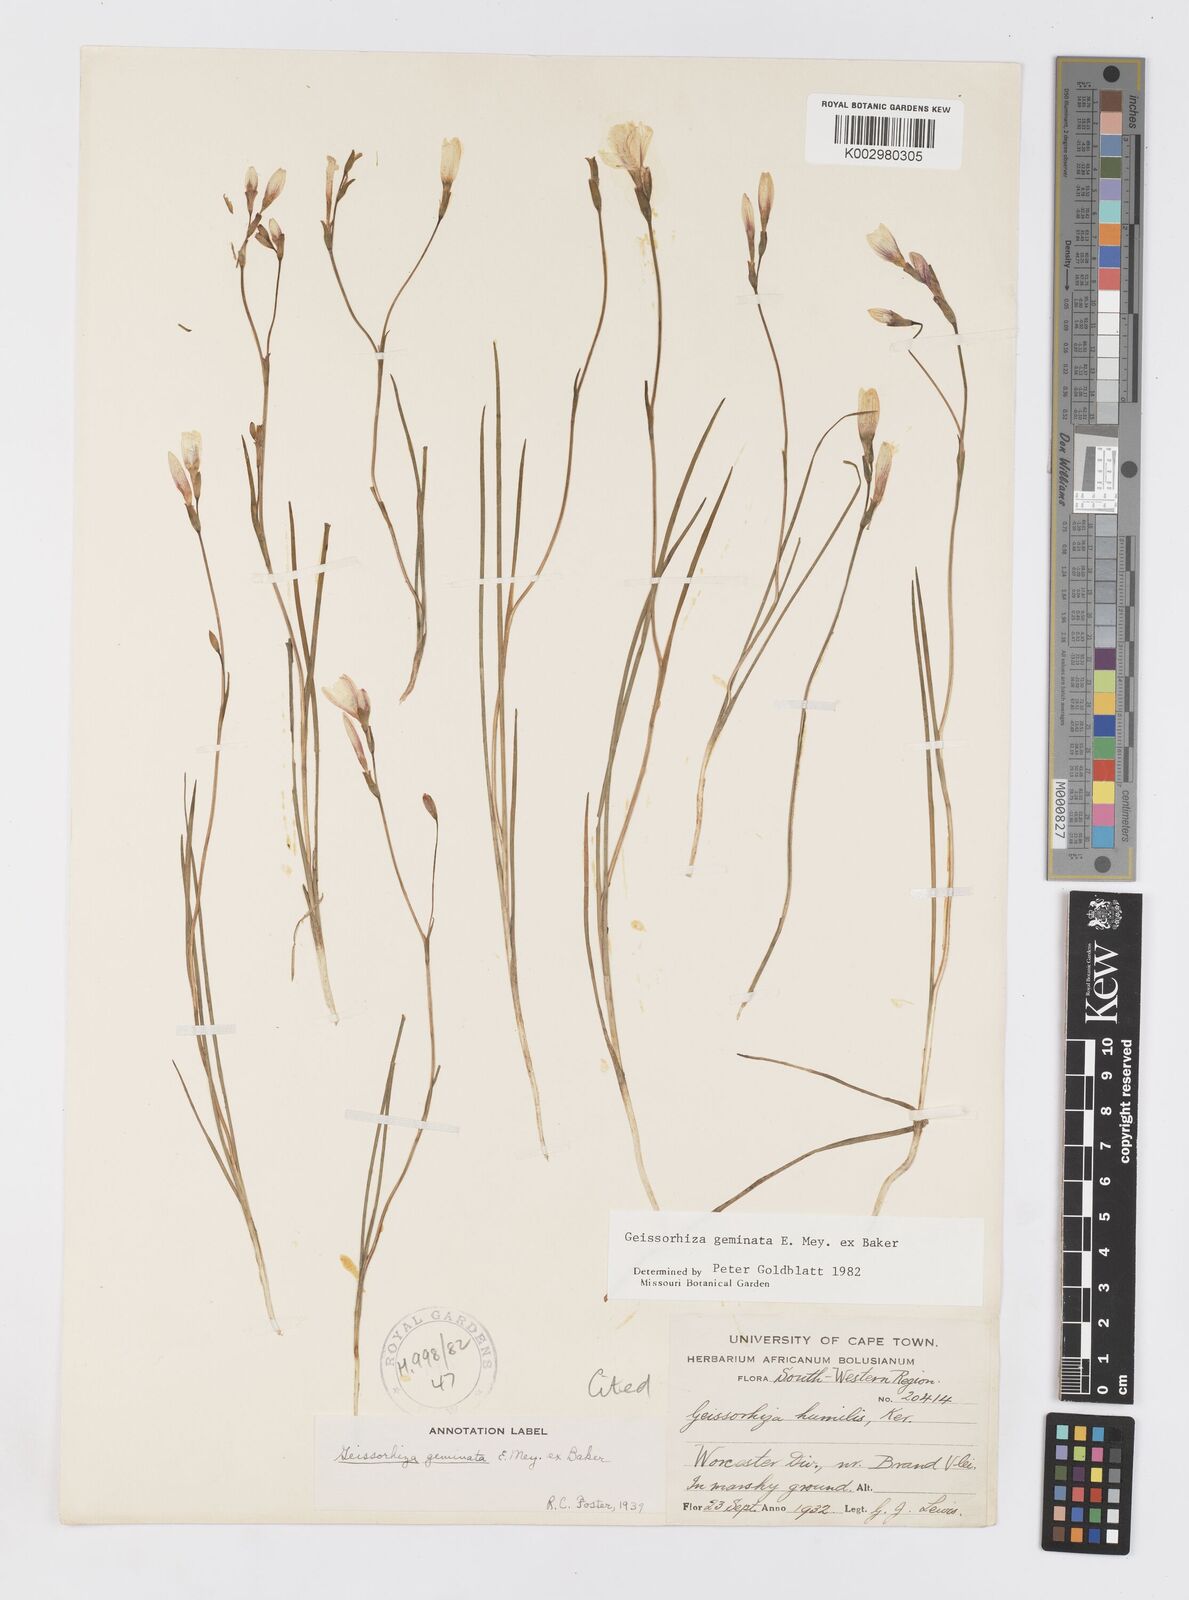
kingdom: Plantae
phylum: Tracheophyta
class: Liliopsida
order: Asparagales
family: Iridaceae
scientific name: Iridaceae
